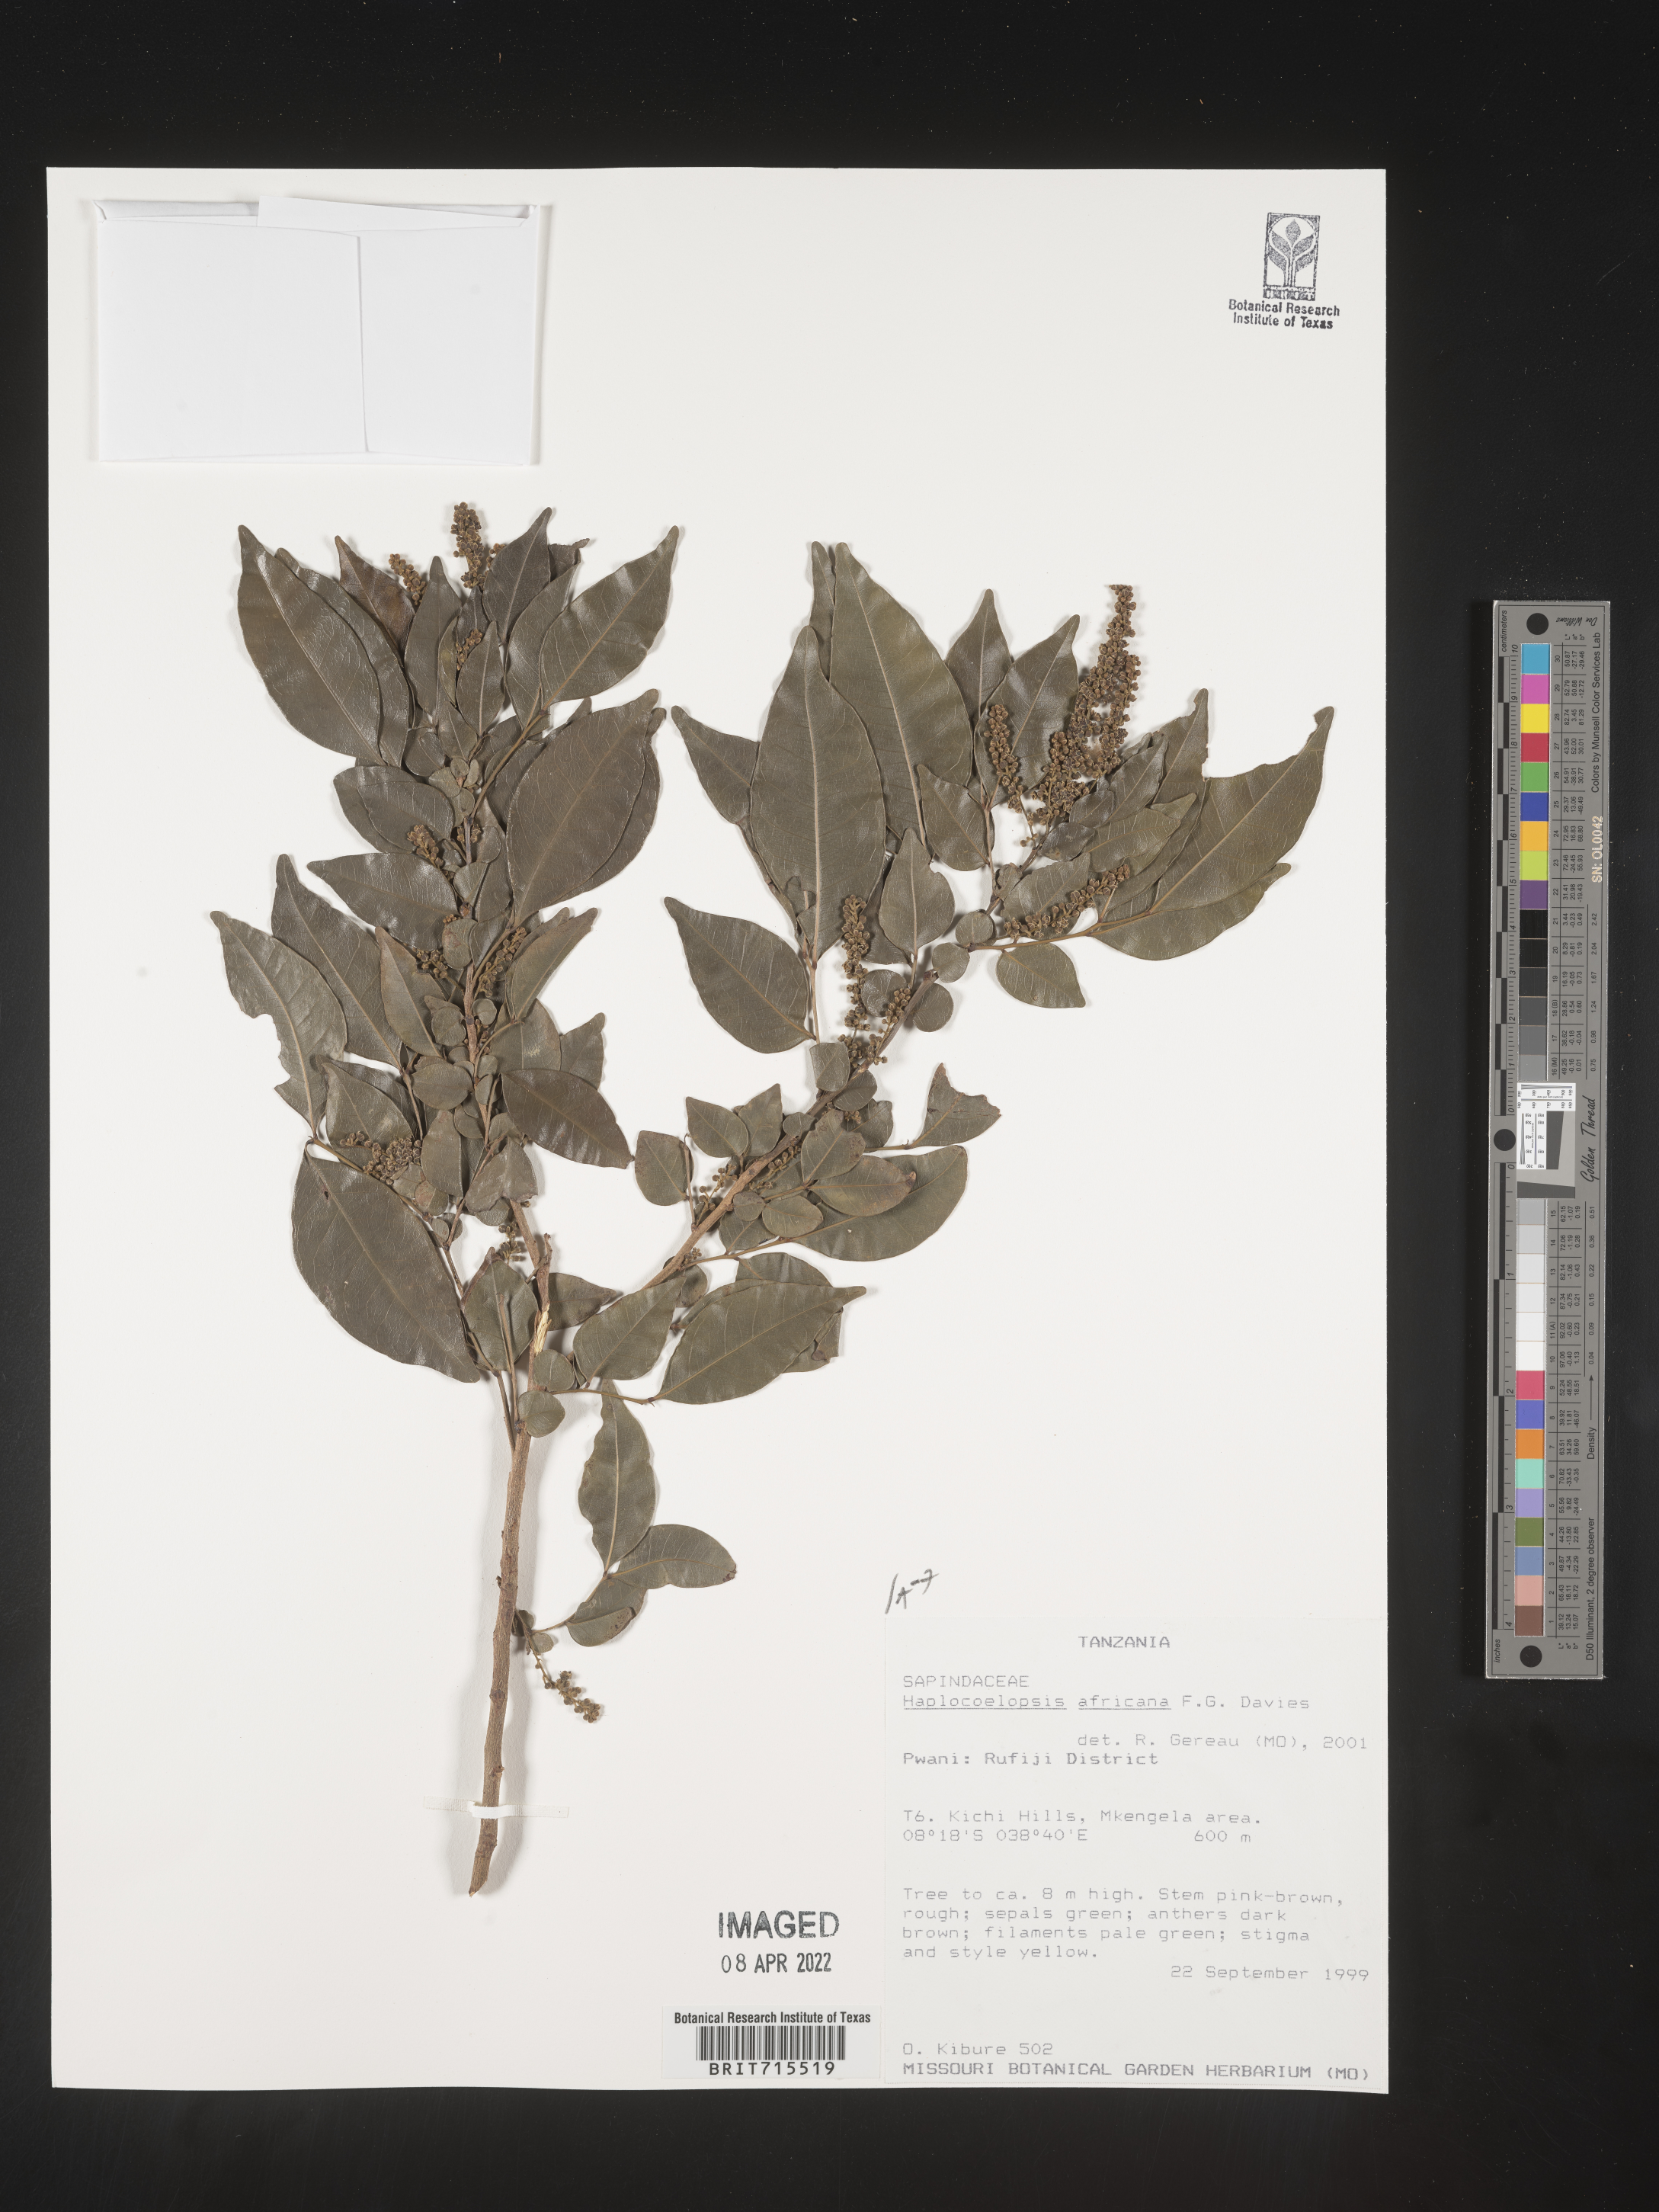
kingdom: Plantae
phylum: Tracheophyta
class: Magnoliopsida
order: Sapindales
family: Sapindaceae
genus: Haplocoelopsis
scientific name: Haplocoelopsis
